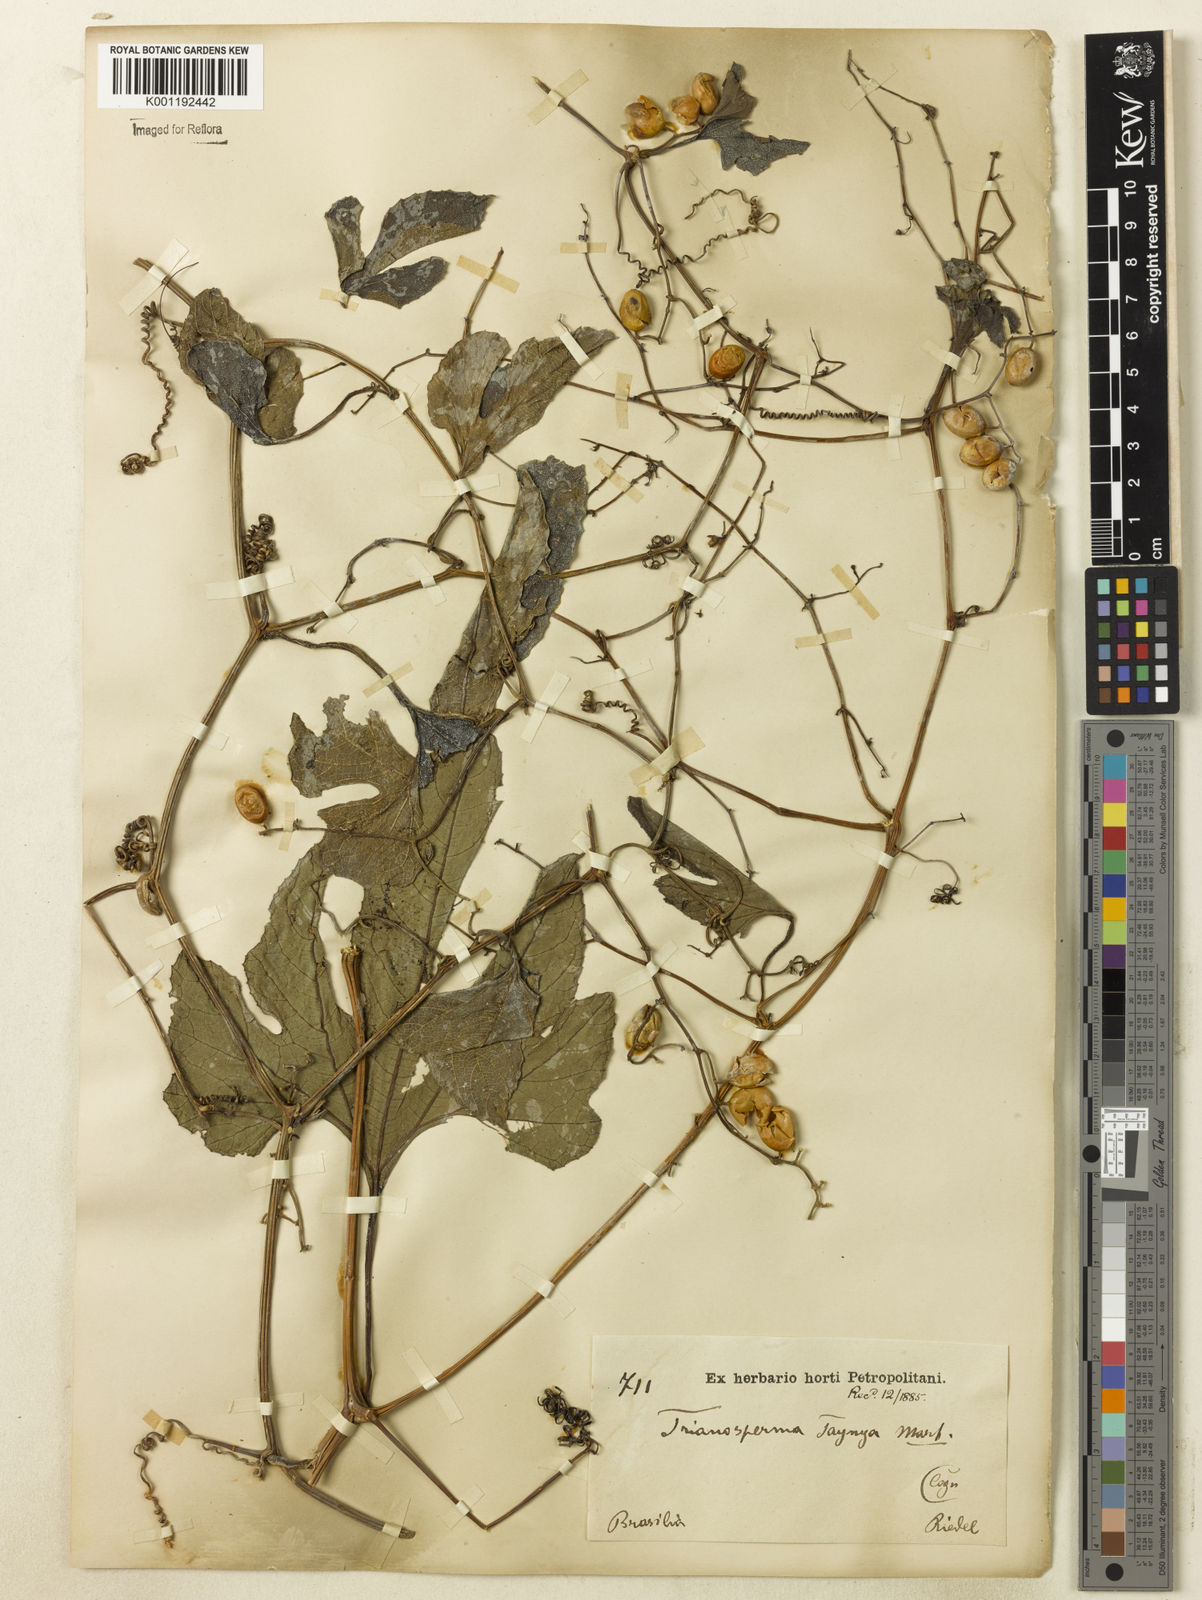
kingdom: Plantae
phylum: Tracheophyta
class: Magnoliopsida
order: Cucurbitales
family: Cucurbitaceae
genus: Cayaponia
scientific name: Cayaponia tayuya
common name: Tayuya
